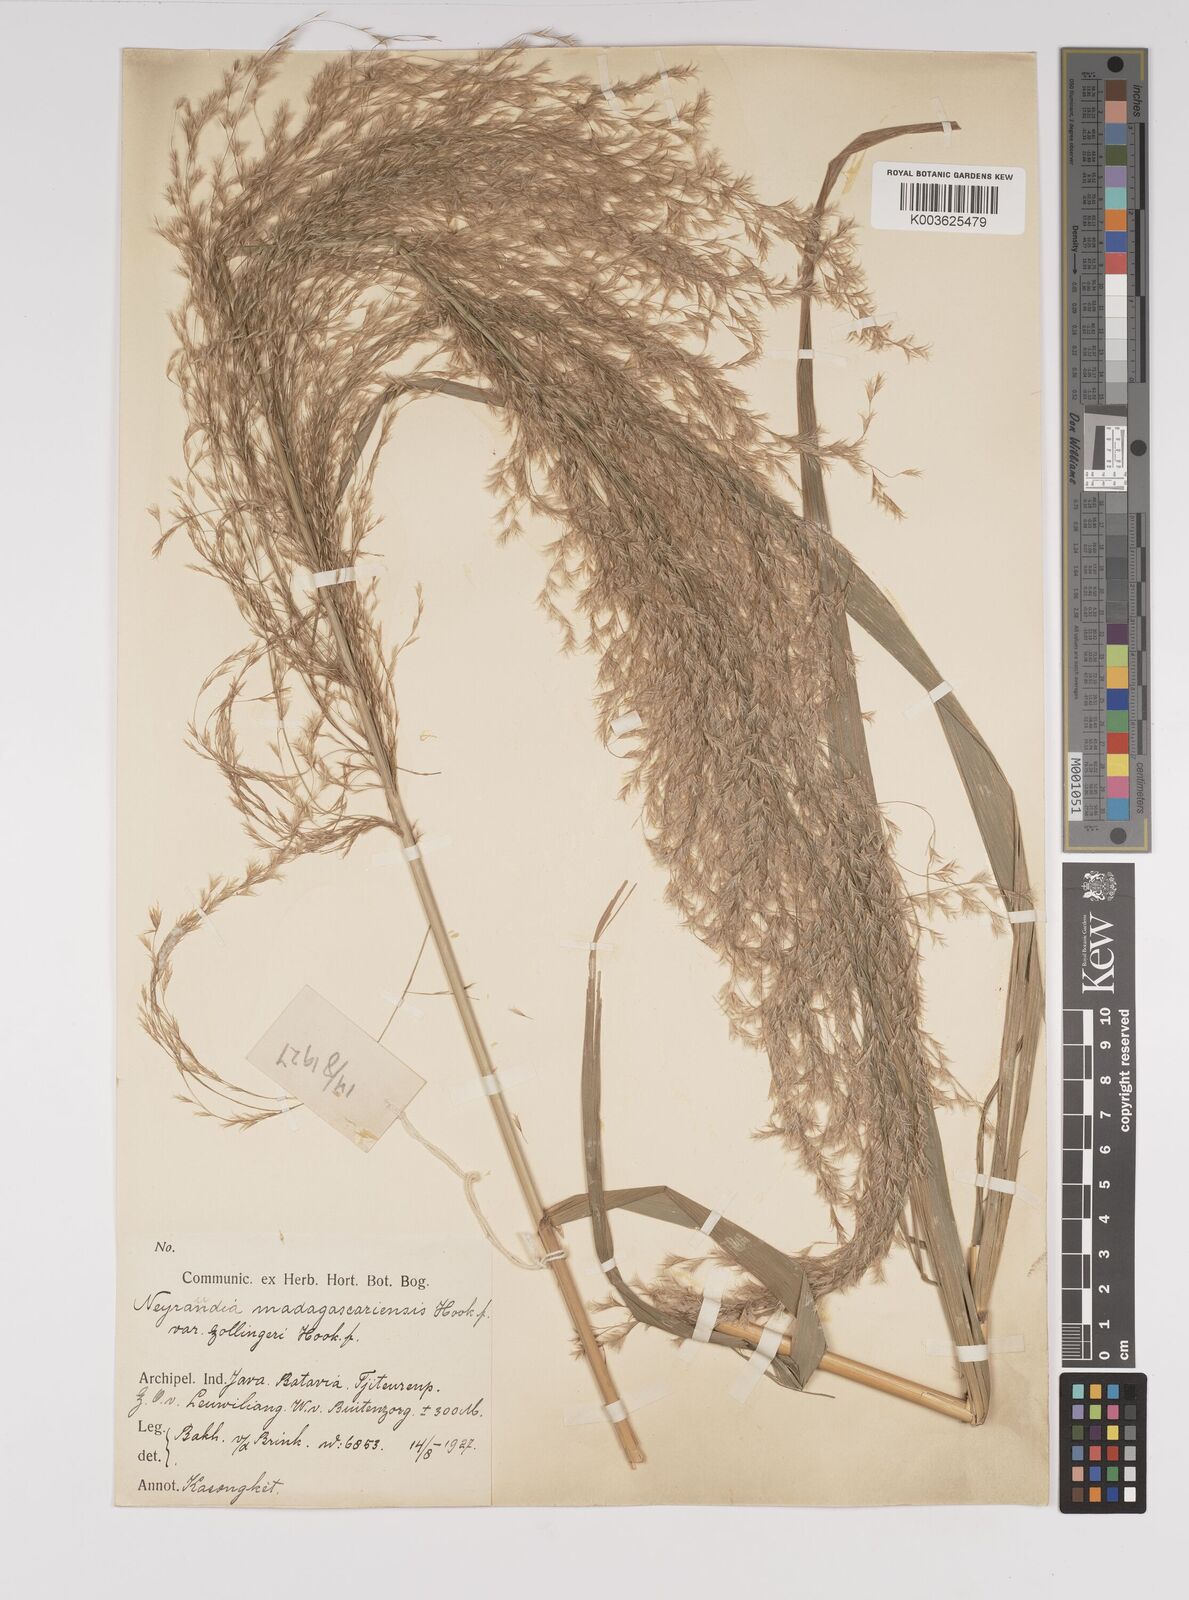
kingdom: Plantae
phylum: Tracheophyta
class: Liliopsida
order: Poales
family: Poaceae
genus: Neyraudia
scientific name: Neyraudia reynaudiana
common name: Silkreed
